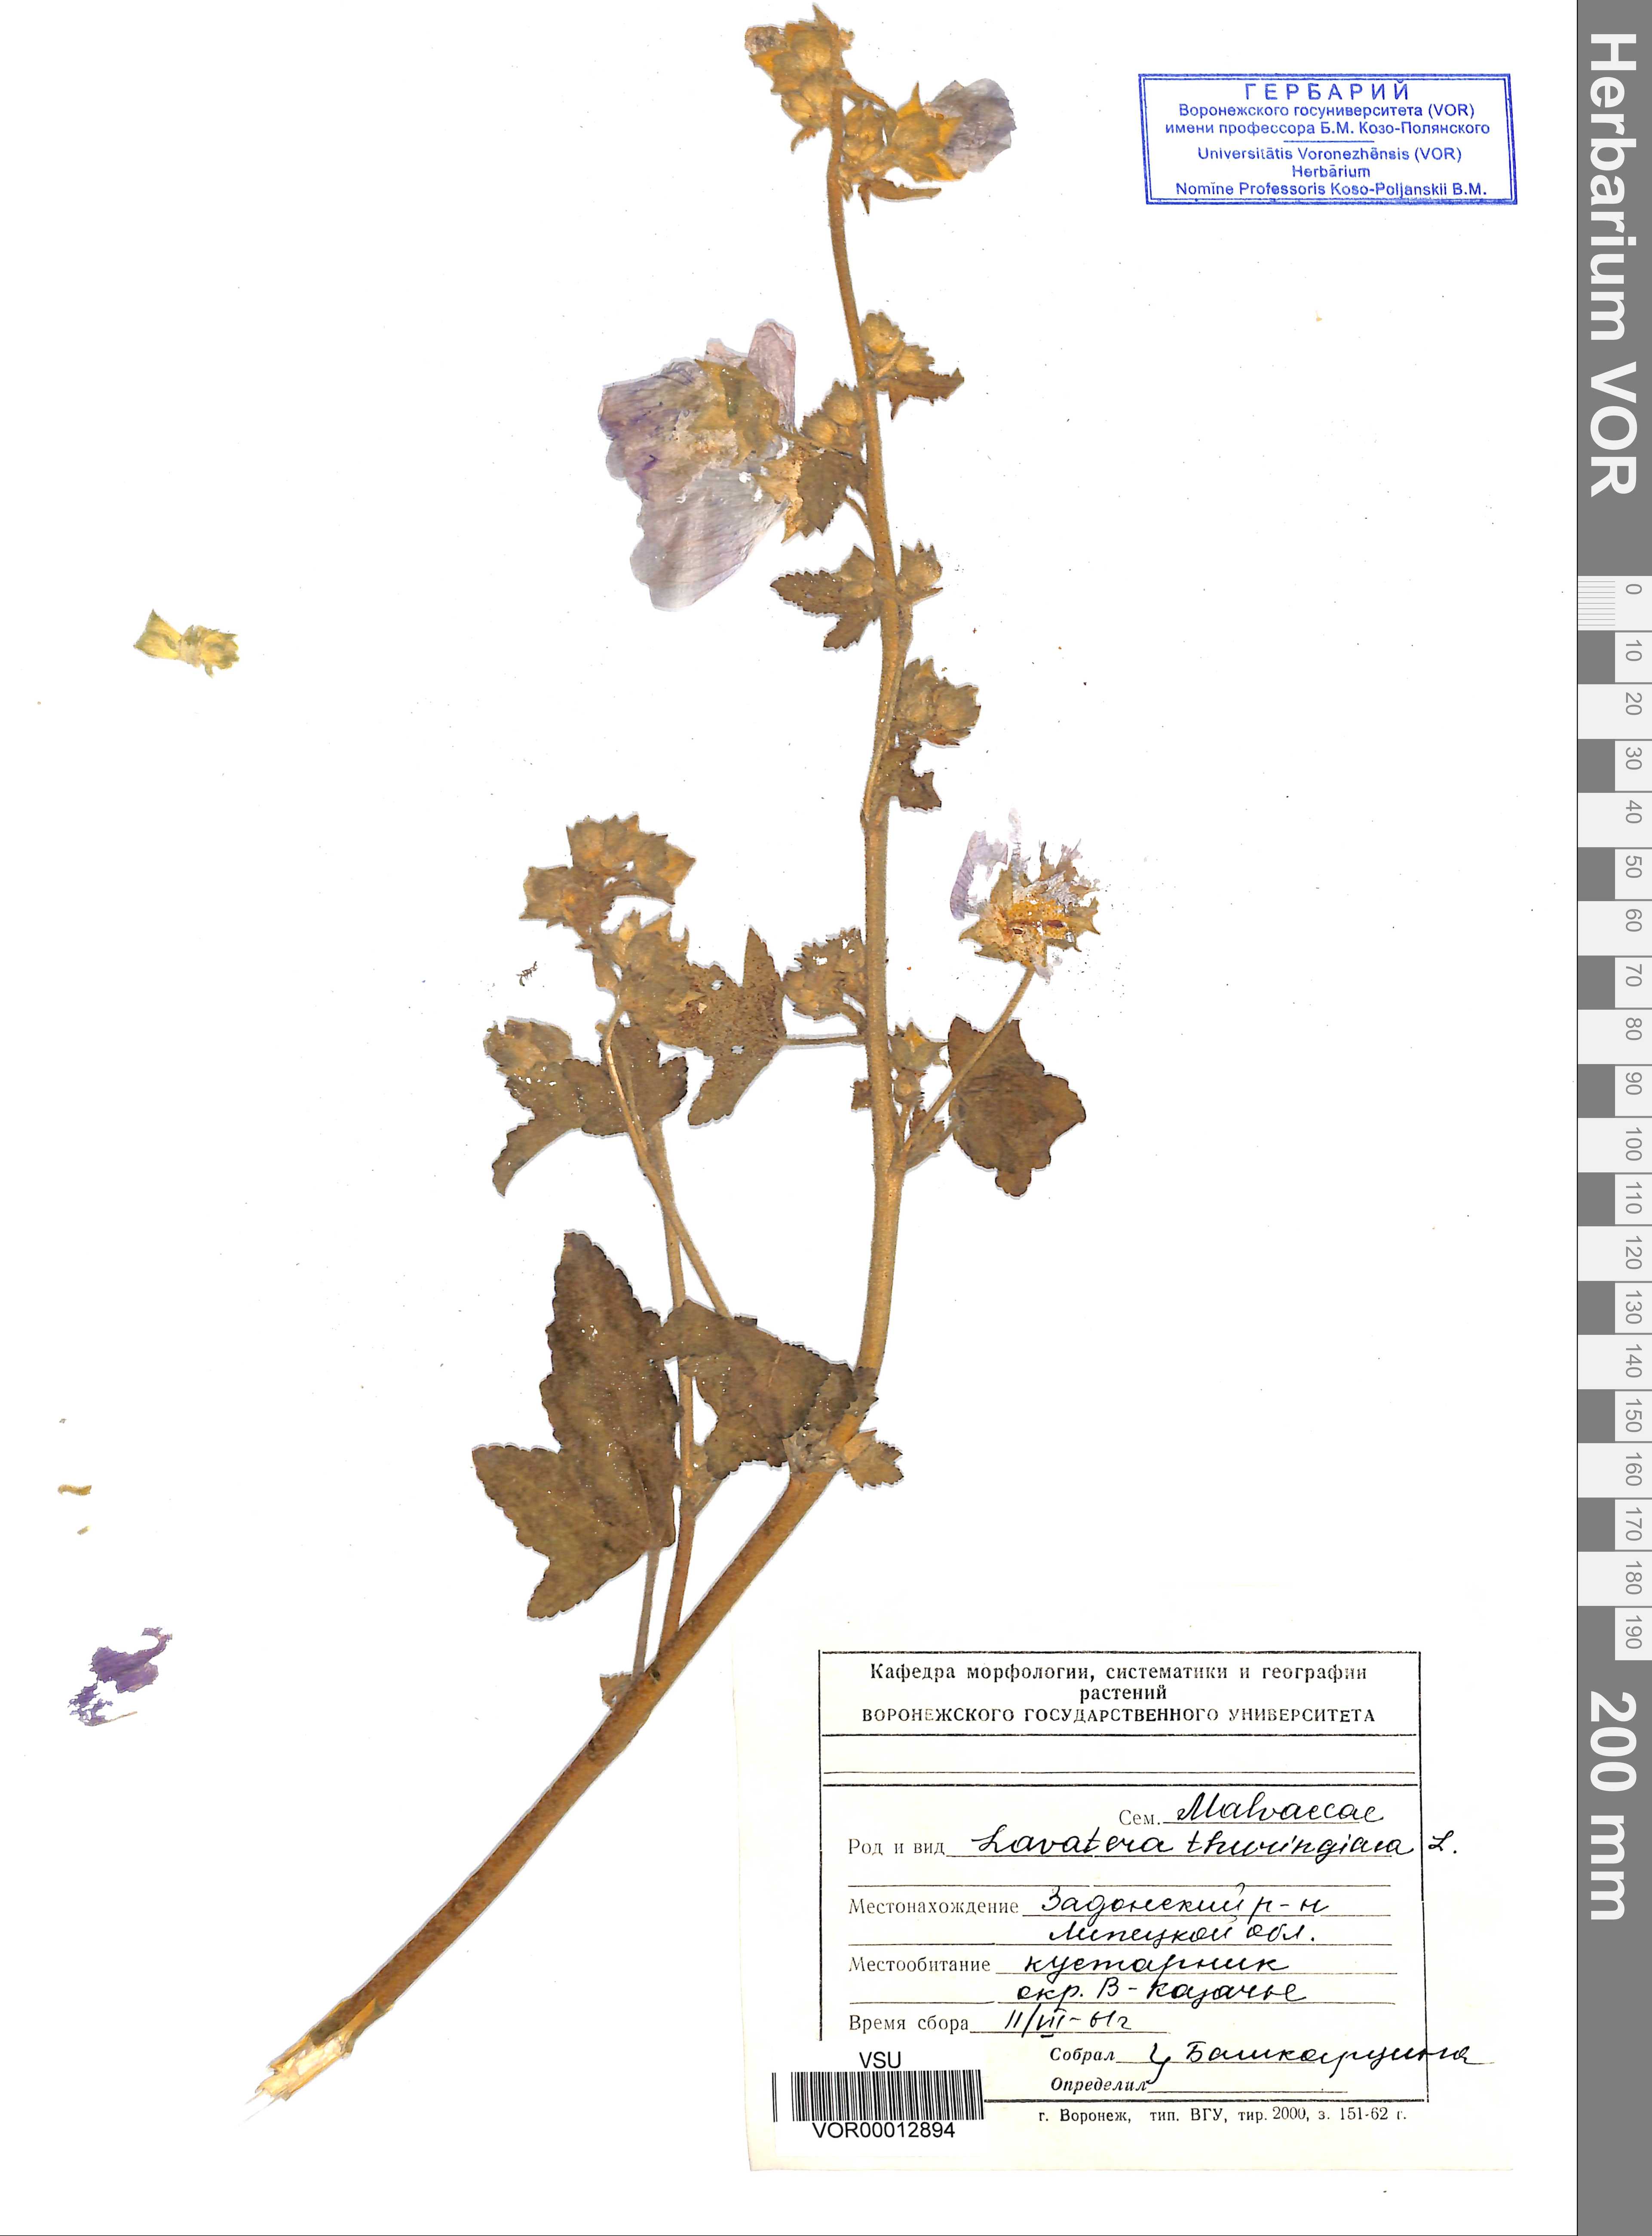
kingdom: Plantae
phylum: Tracheophyta
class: Magnoliopsida
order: Malvales
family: Malvaceae
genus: Malva
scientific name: Malva thuringiaca
